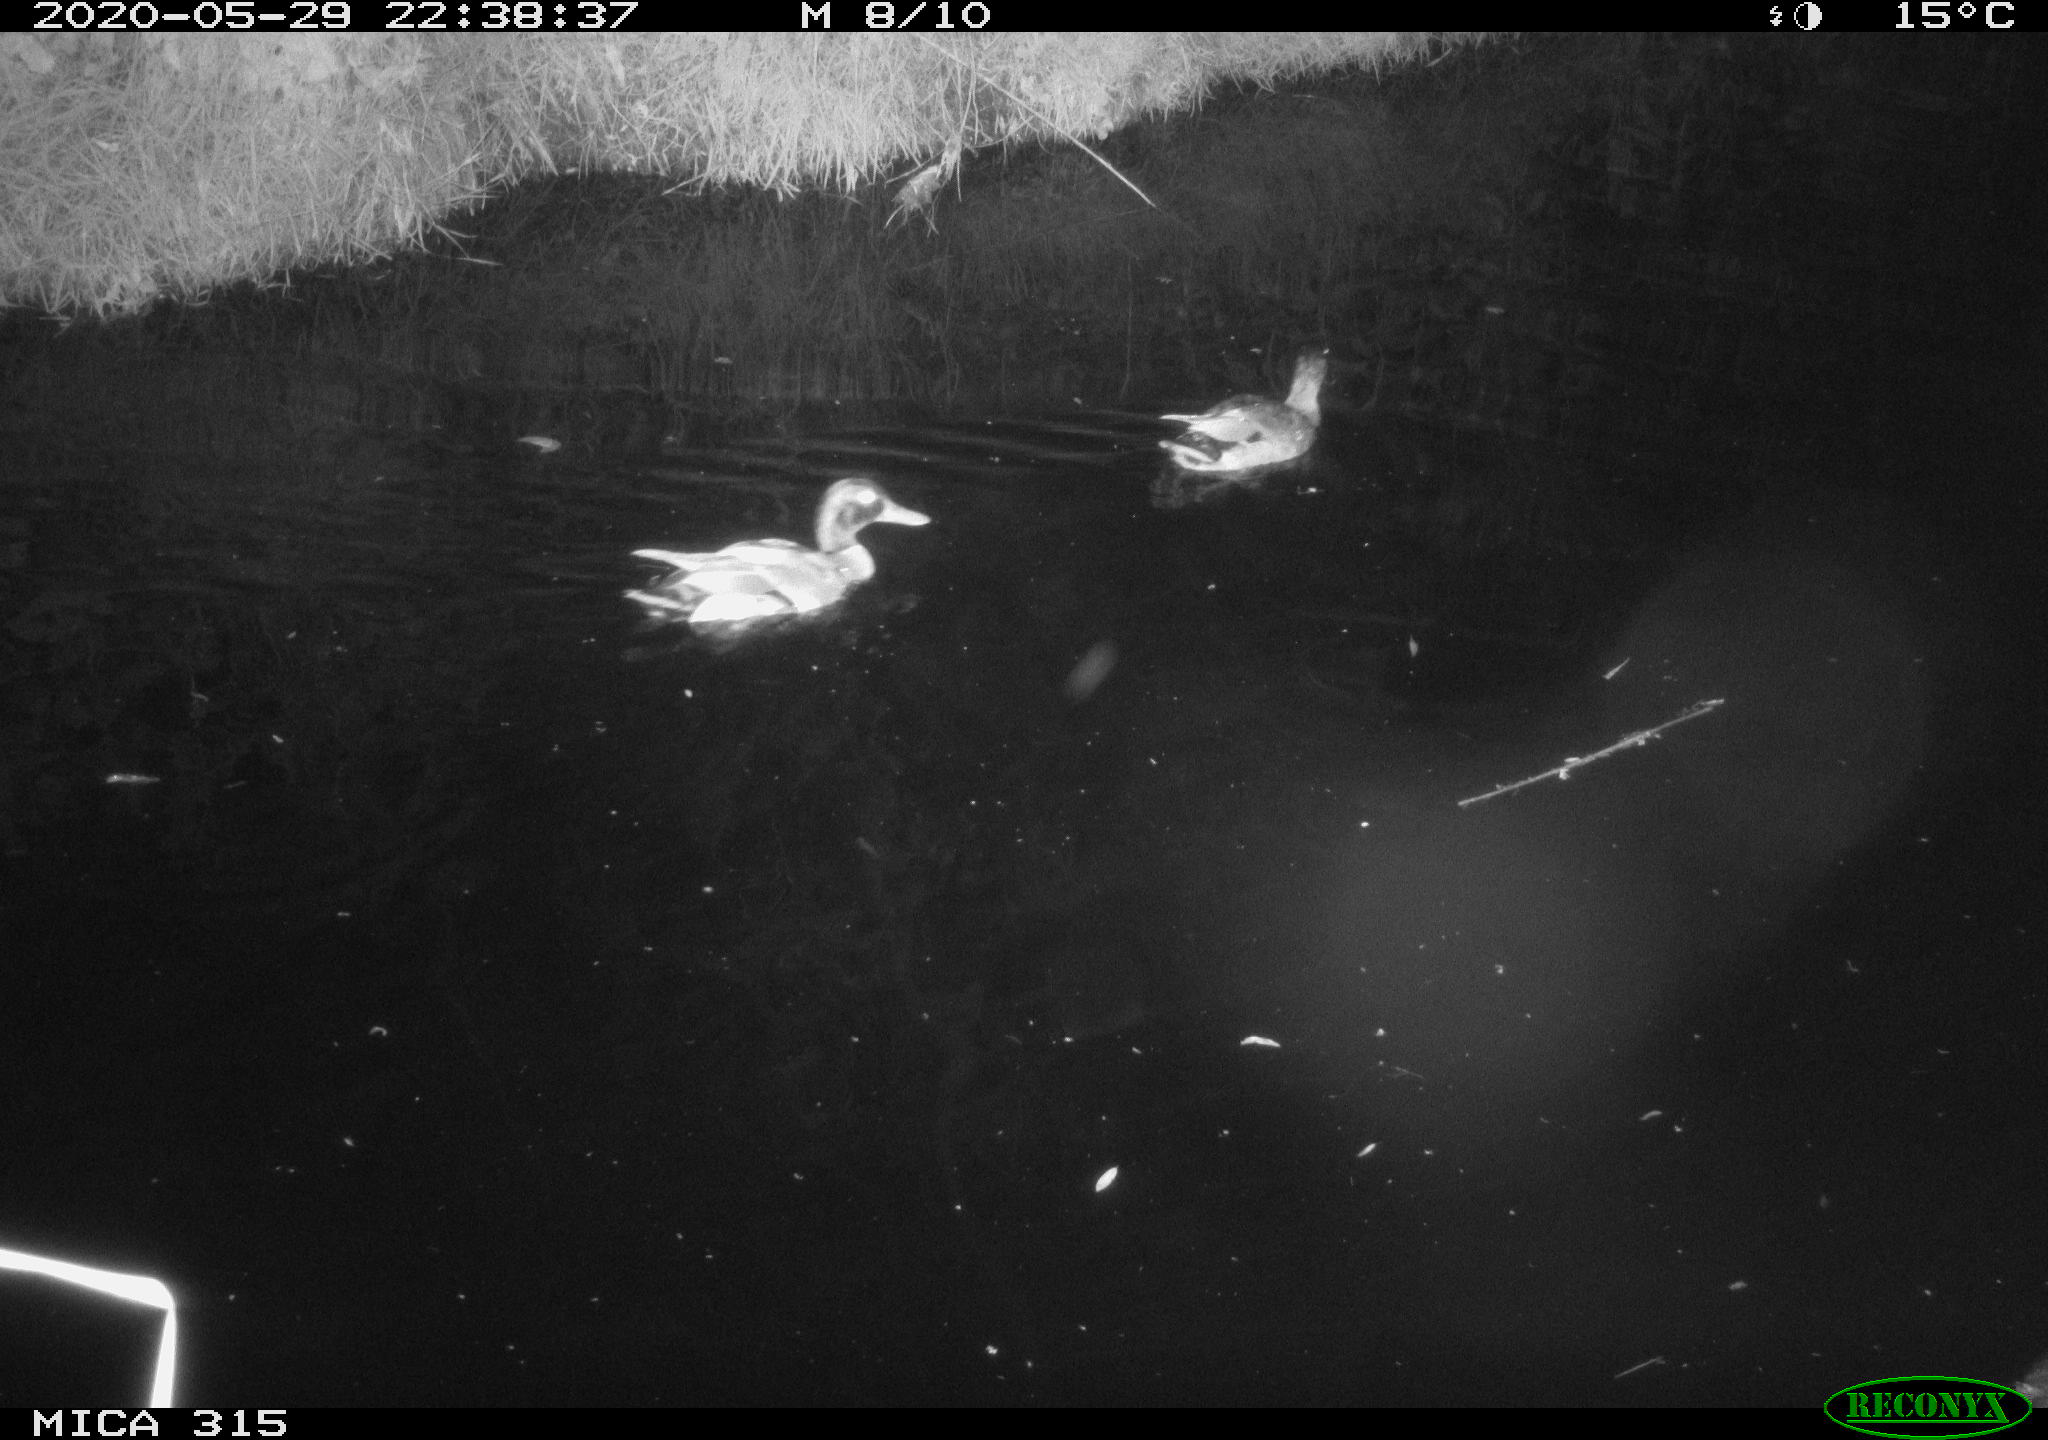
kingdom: Animalia
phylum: Chordata
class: Aves
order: Anseriformes
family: Anatidae
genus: Anas
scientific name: Anas platyrhynchos
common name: Mallard
